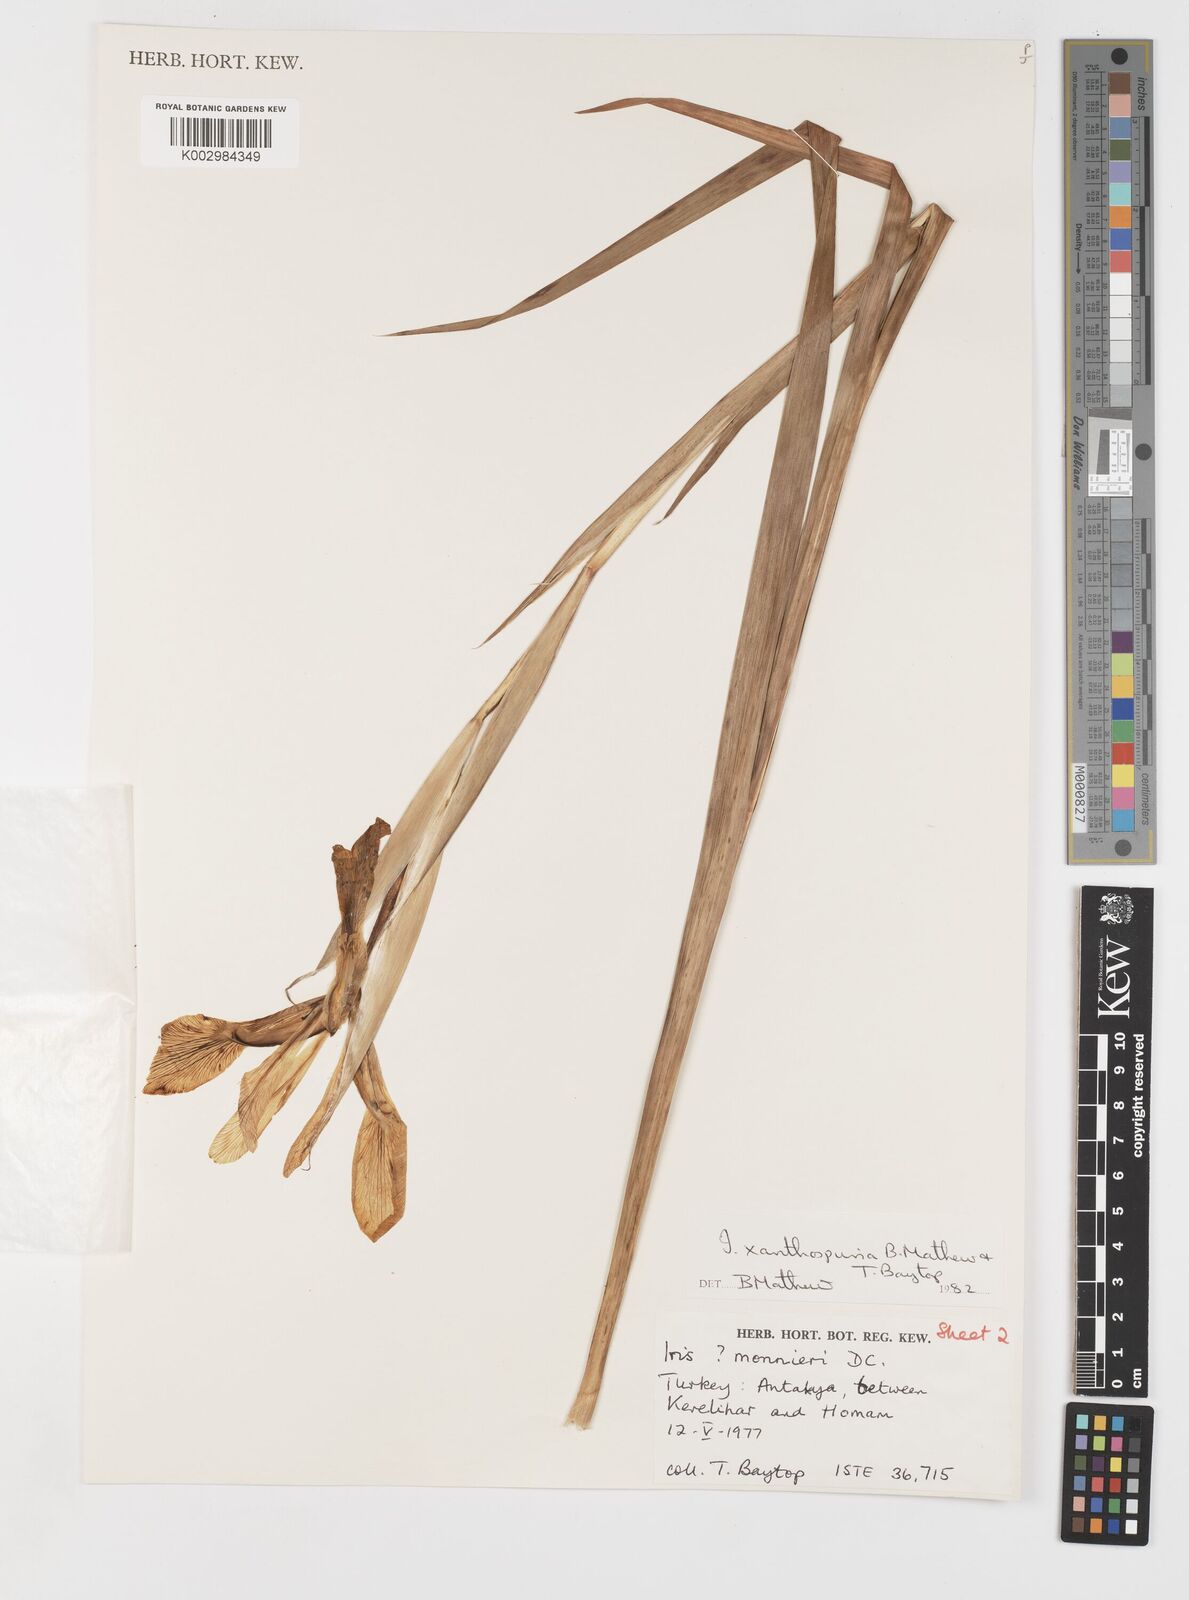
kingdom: Plantae
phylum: Tracheophyta
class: Liliopsida
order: Asparagales
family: Iridaceae
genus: Iris
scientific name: Iris spuria
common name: Blue iris
